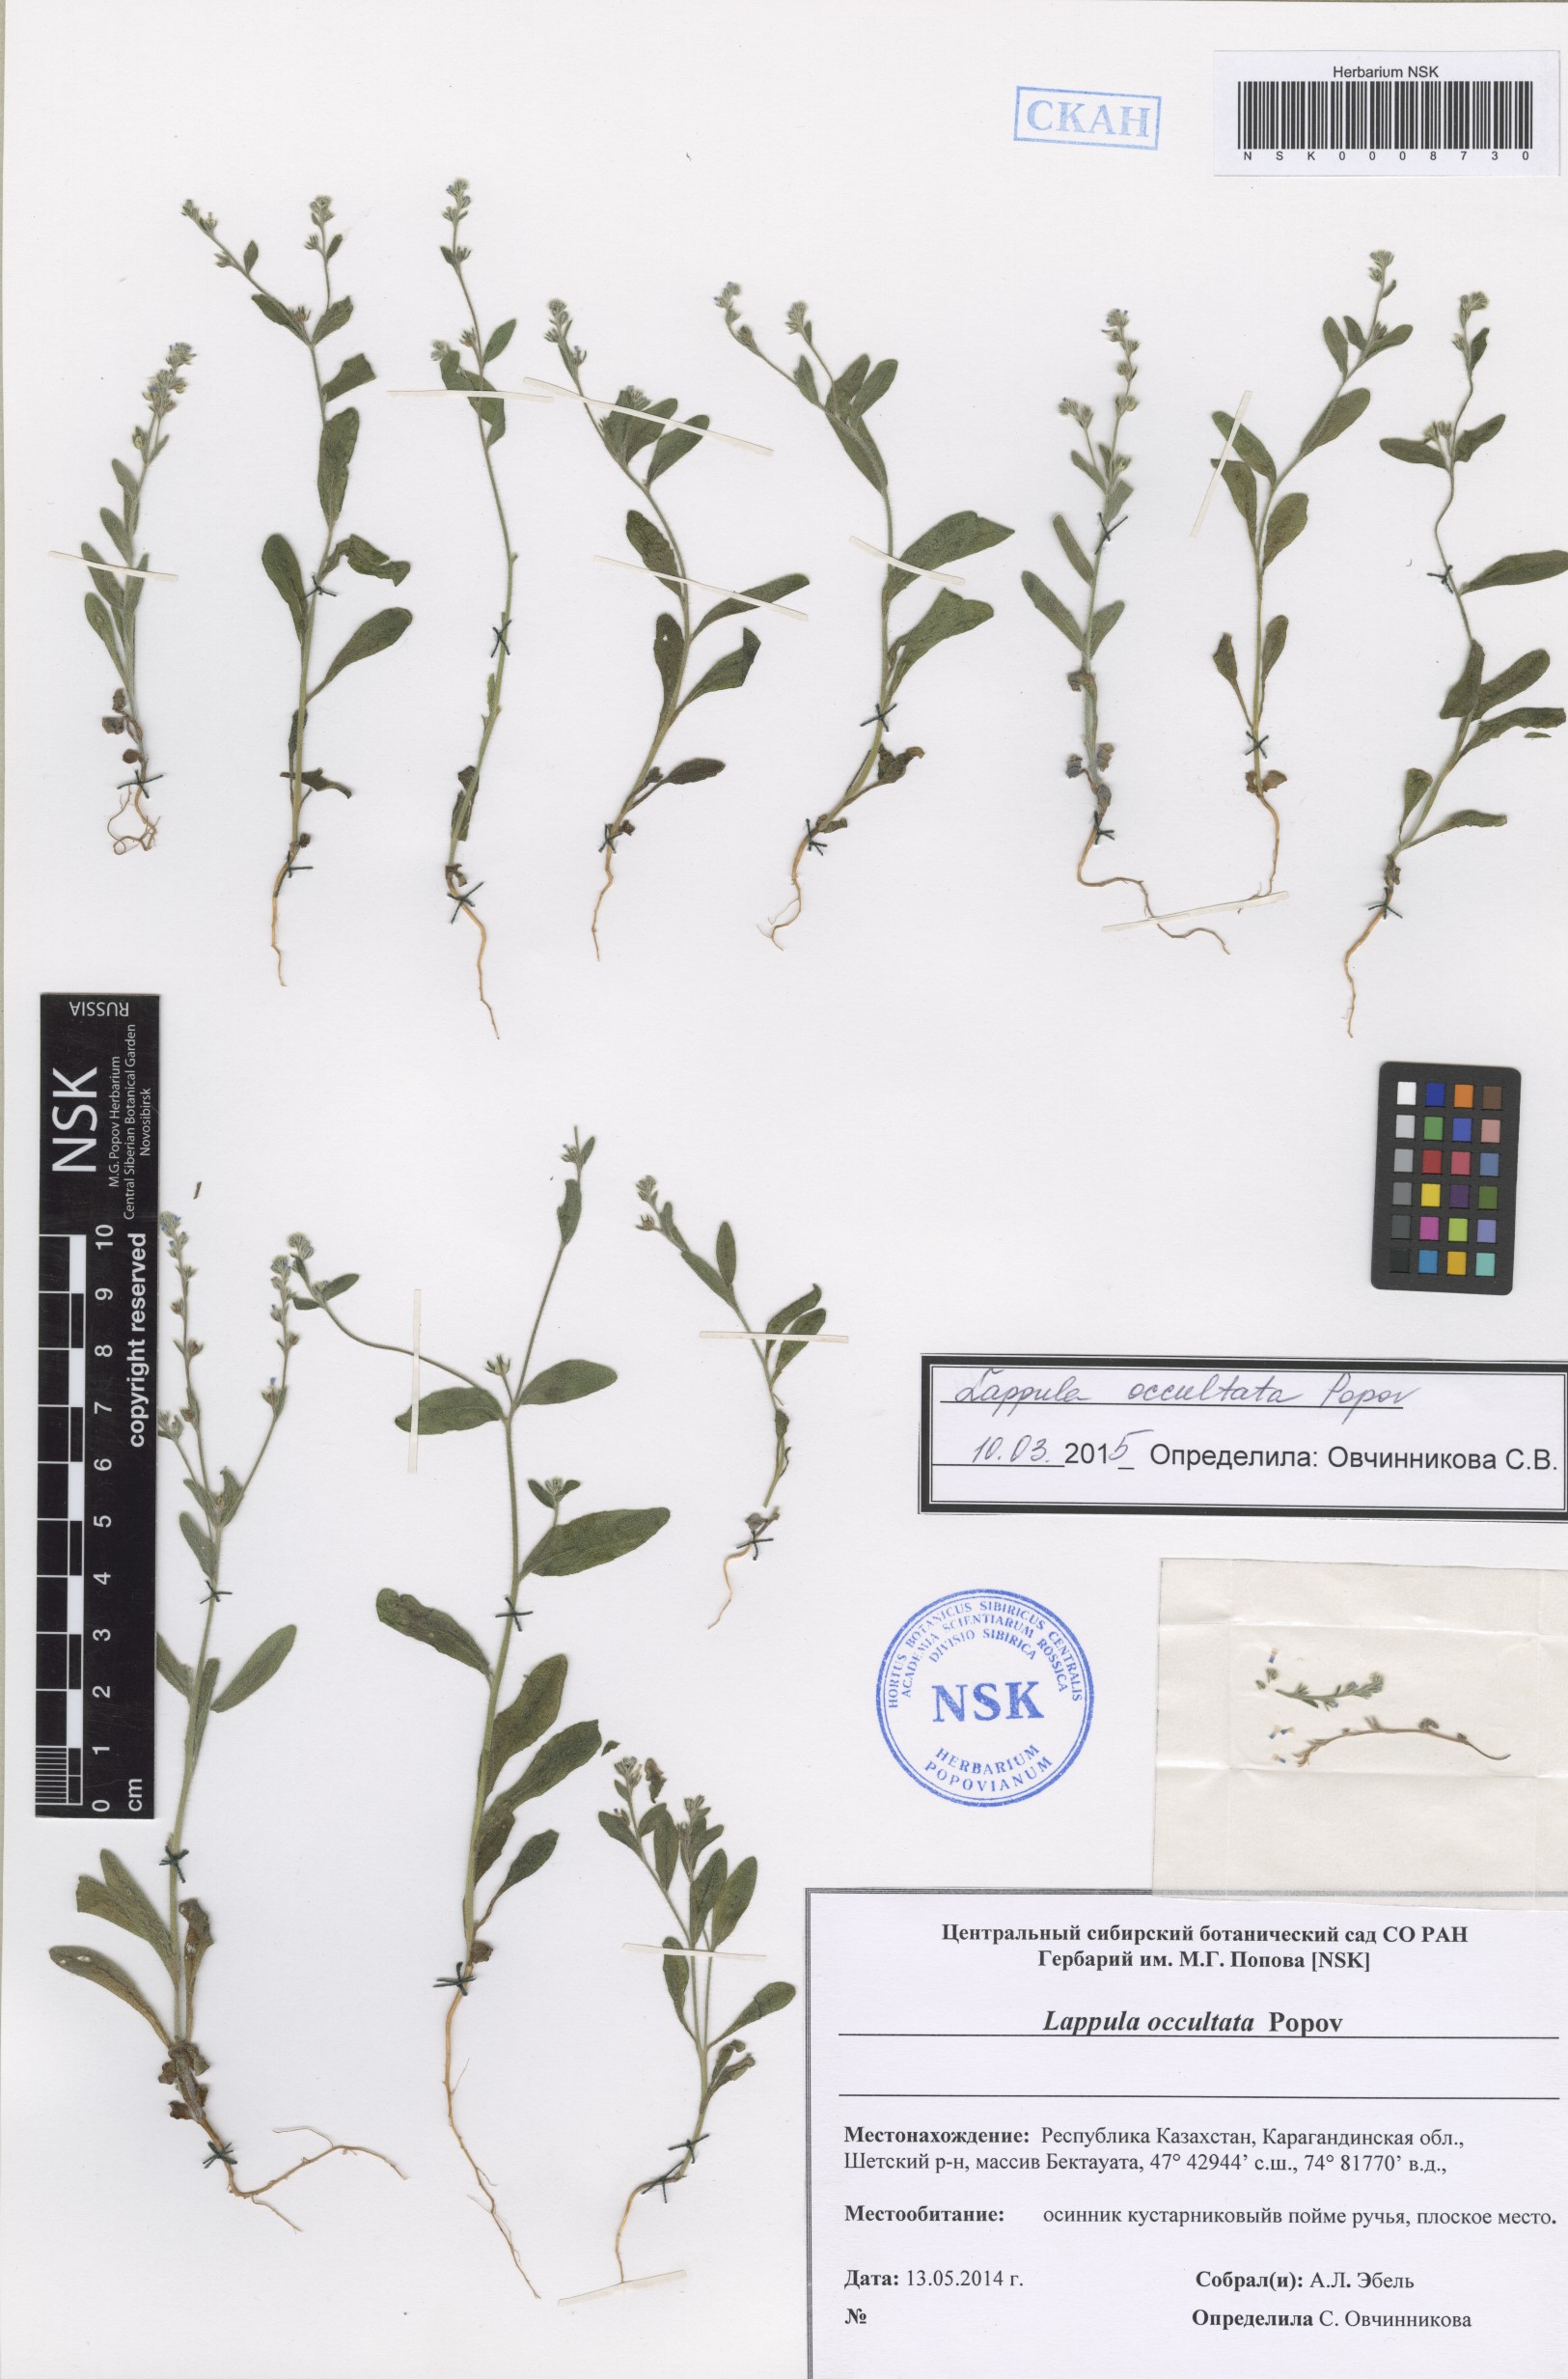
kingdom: Plantae
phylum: Tracheophyta
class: Magnoliopsida
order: Boraginales
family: Boraginaceae
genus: Lappula
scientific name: Lappula occultata
